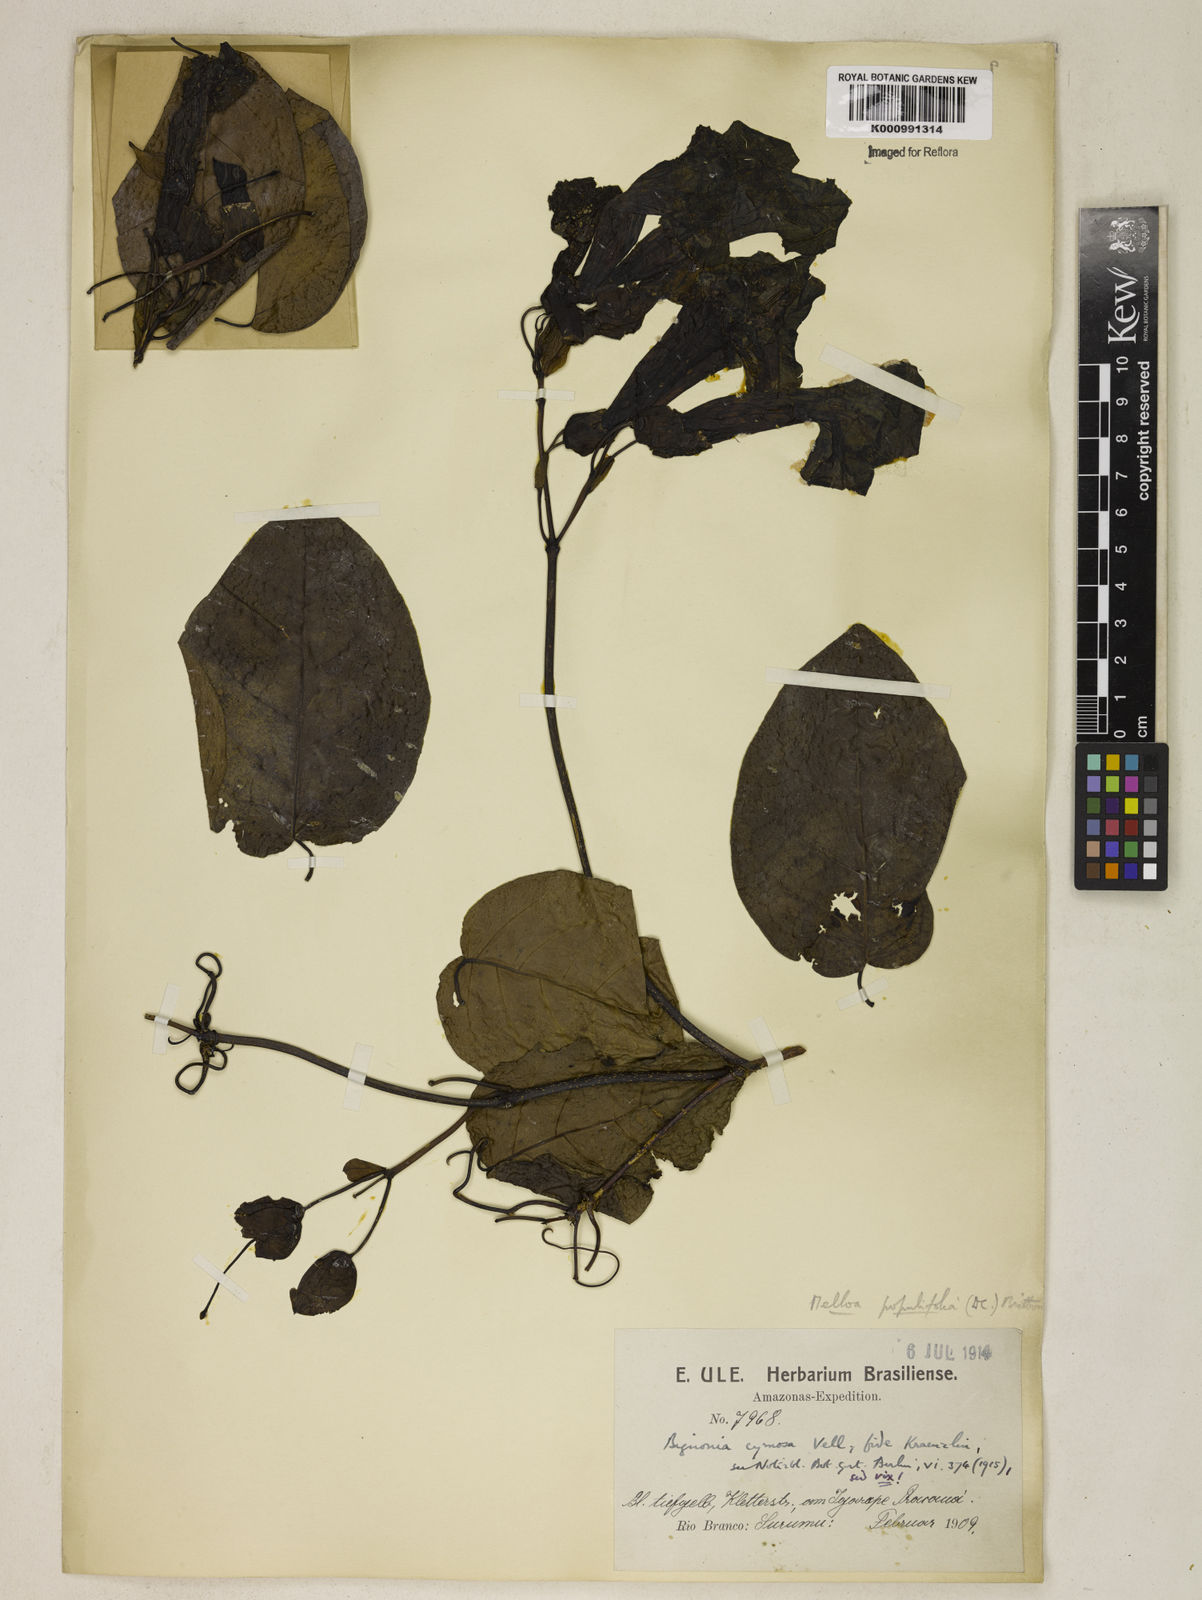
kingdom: Plantae
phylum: Tracheophyta
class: Magnoliopsida
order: Lamiales
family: Bignoniaceae
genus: Dolichandra
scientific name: Dolichandra quadrivalvis
